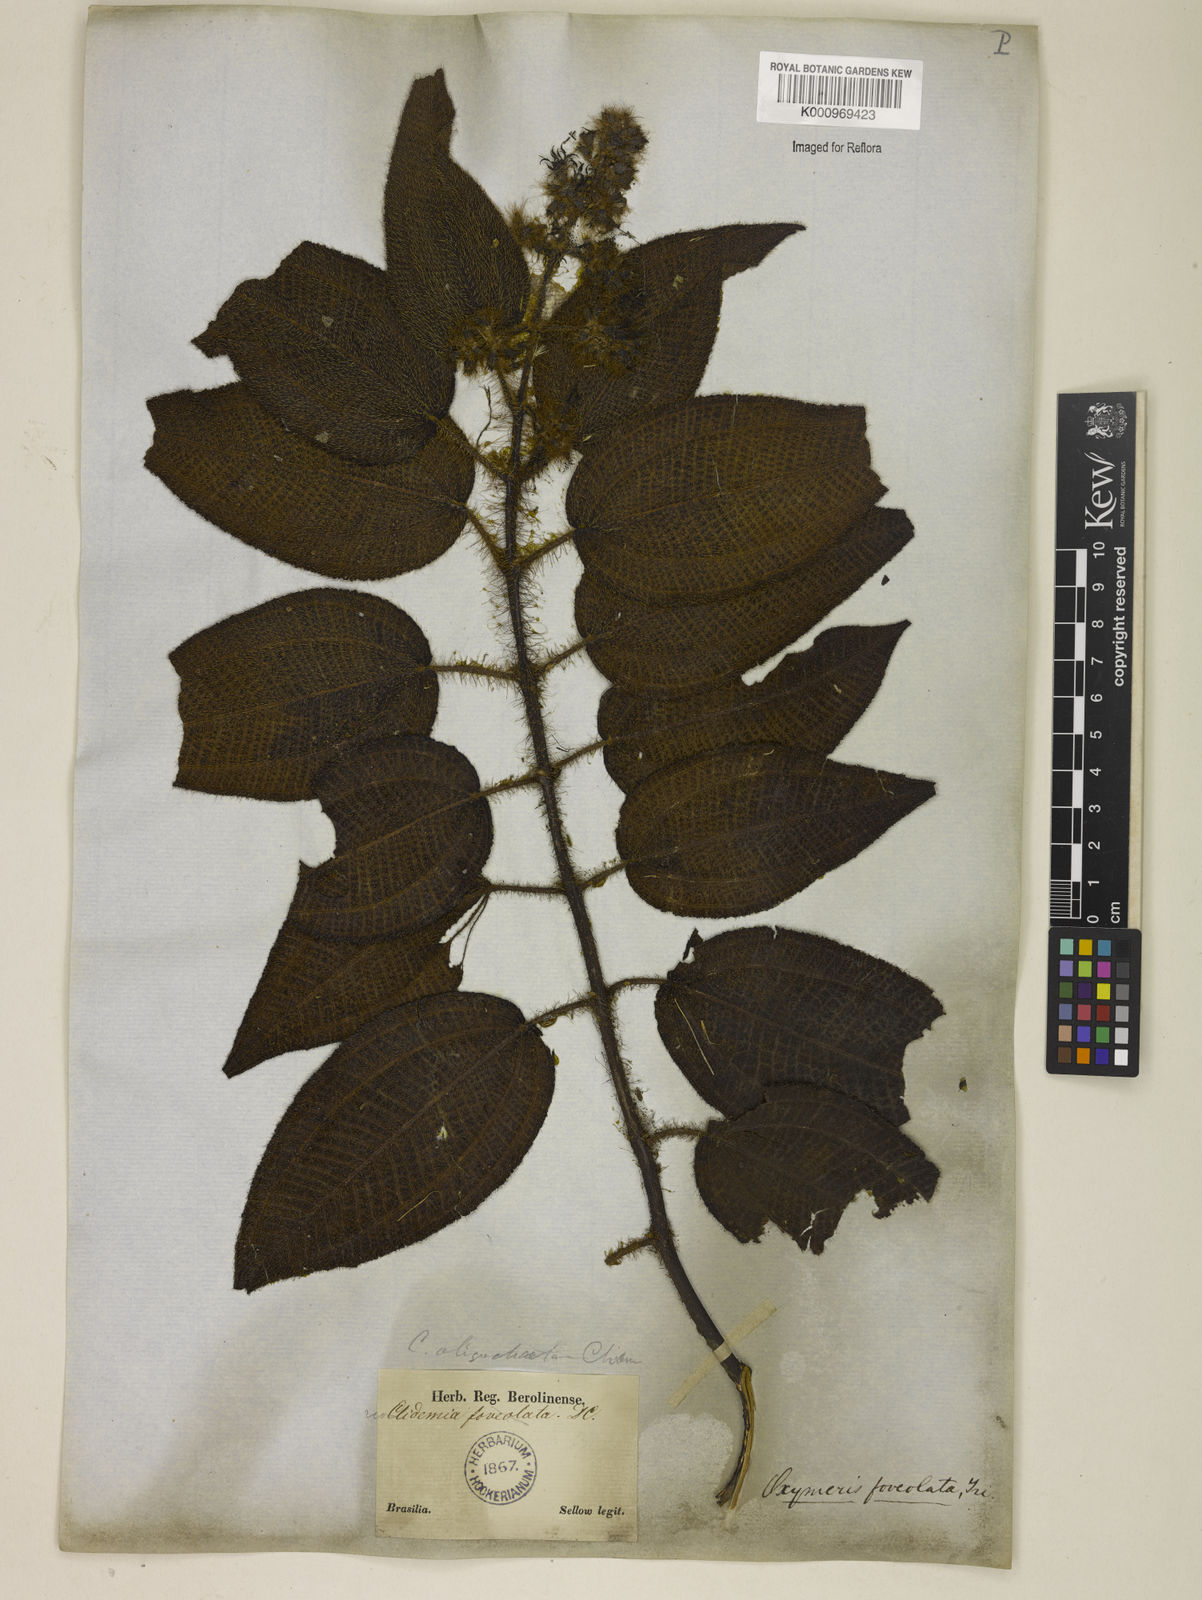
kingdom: Plantae
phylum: Tracheophyta
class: Magnoliopsida
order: Myrtales
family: Melastomataceae
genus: Miconia
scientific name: Miconia leafoveolata
